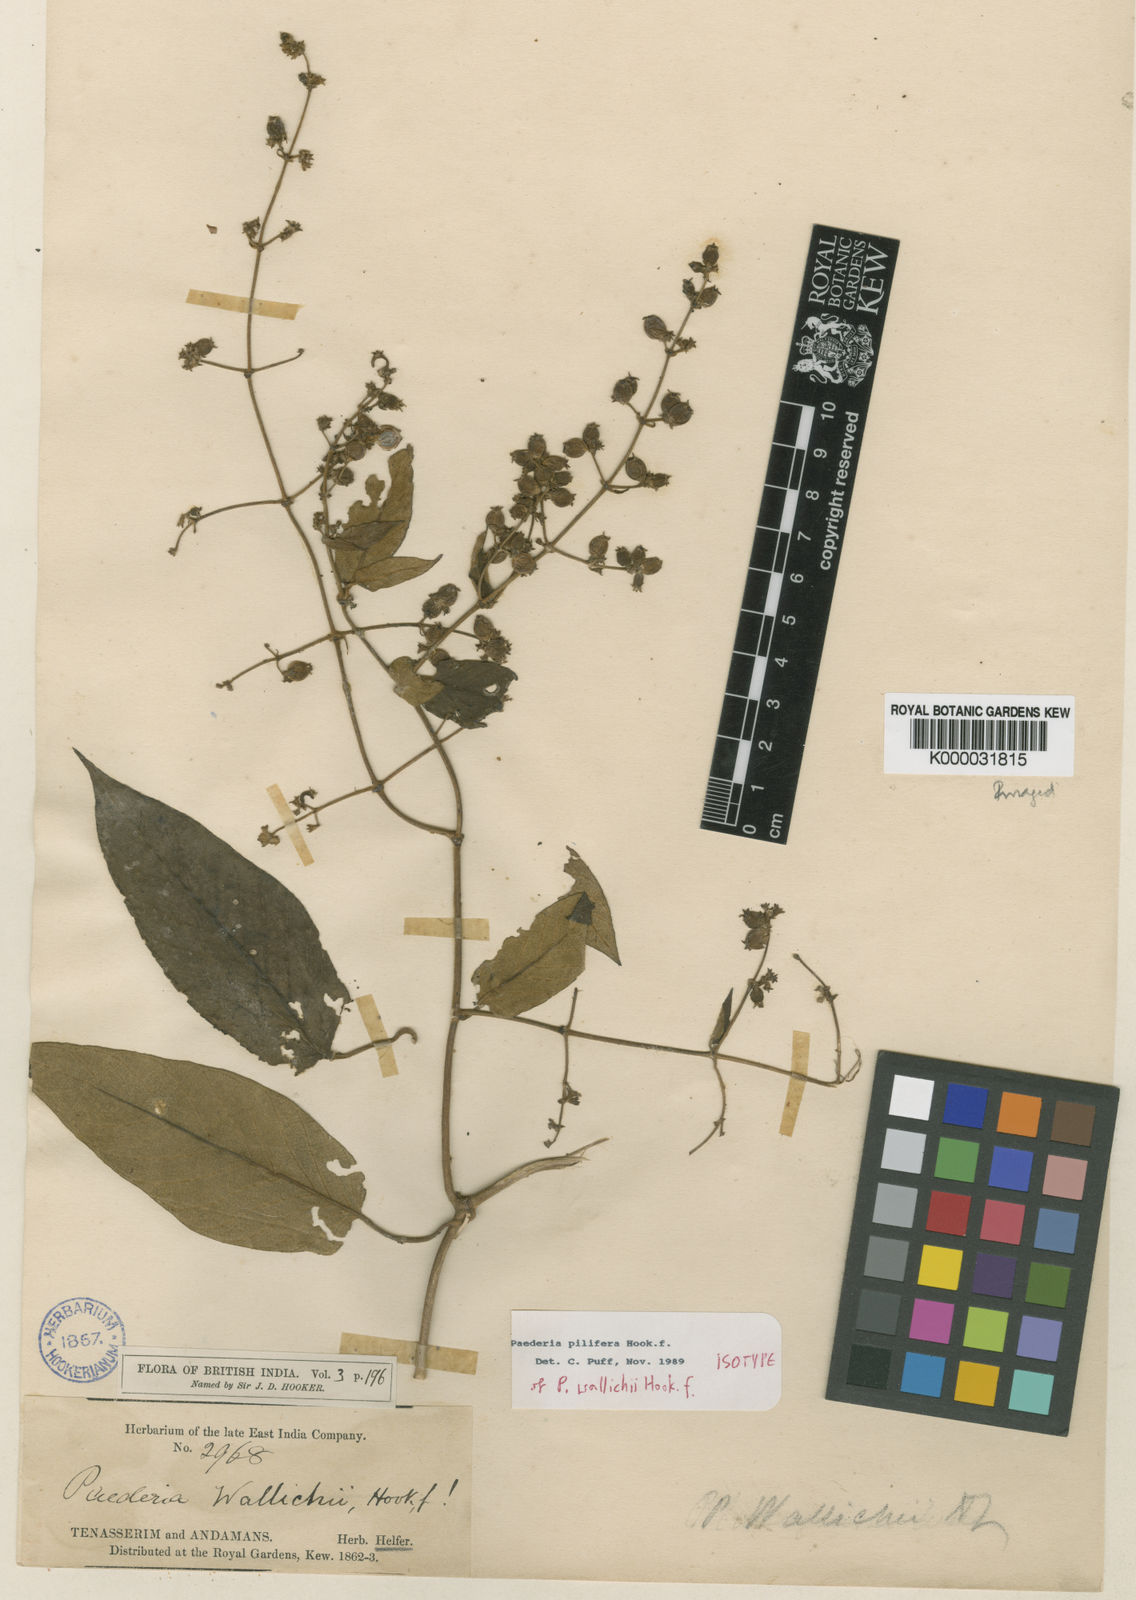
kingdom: Plantae
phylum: Tracheophyta
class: Magnoliopsida
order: Gentianales
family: Rubiaceae
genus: Paederia
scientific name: Paederia pilifera
